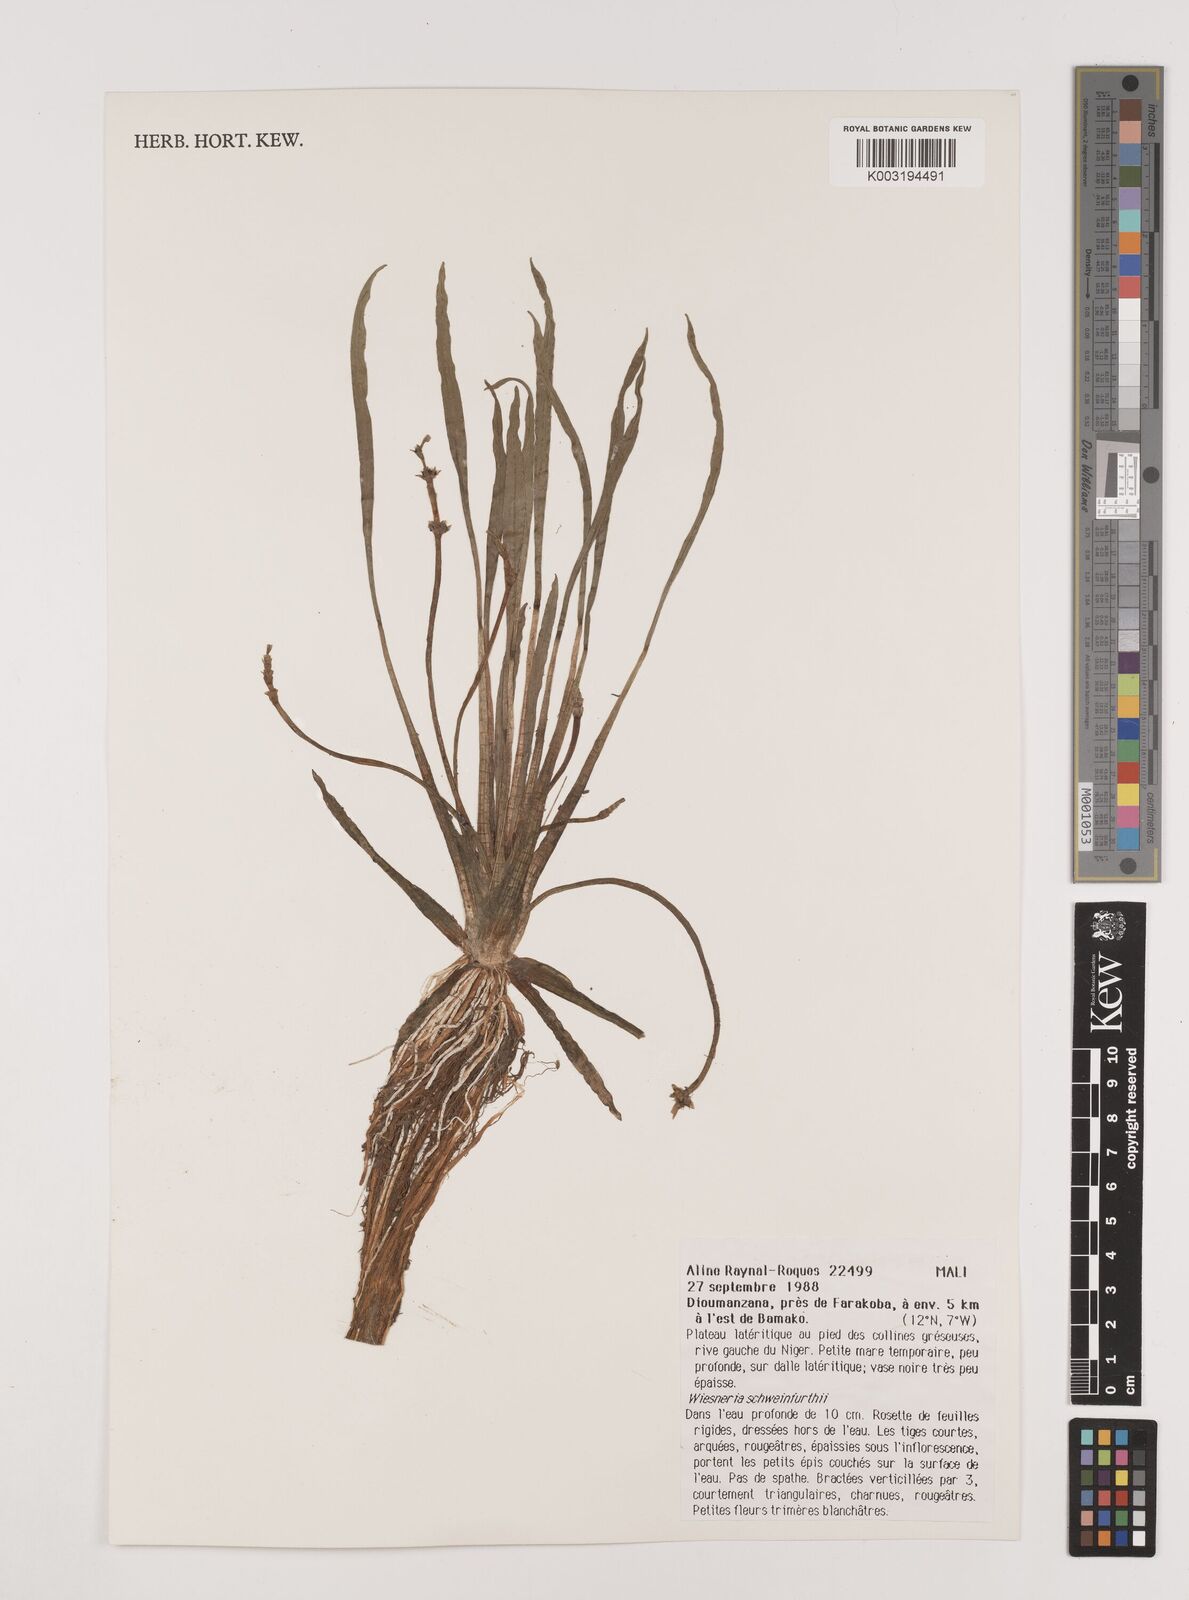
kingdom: Plantae
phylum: Tracheophyta
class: Liliopsida
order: Alismatales
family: Alismataceae
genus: Wiesneria
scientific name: Wiesneria schweinfurthii
